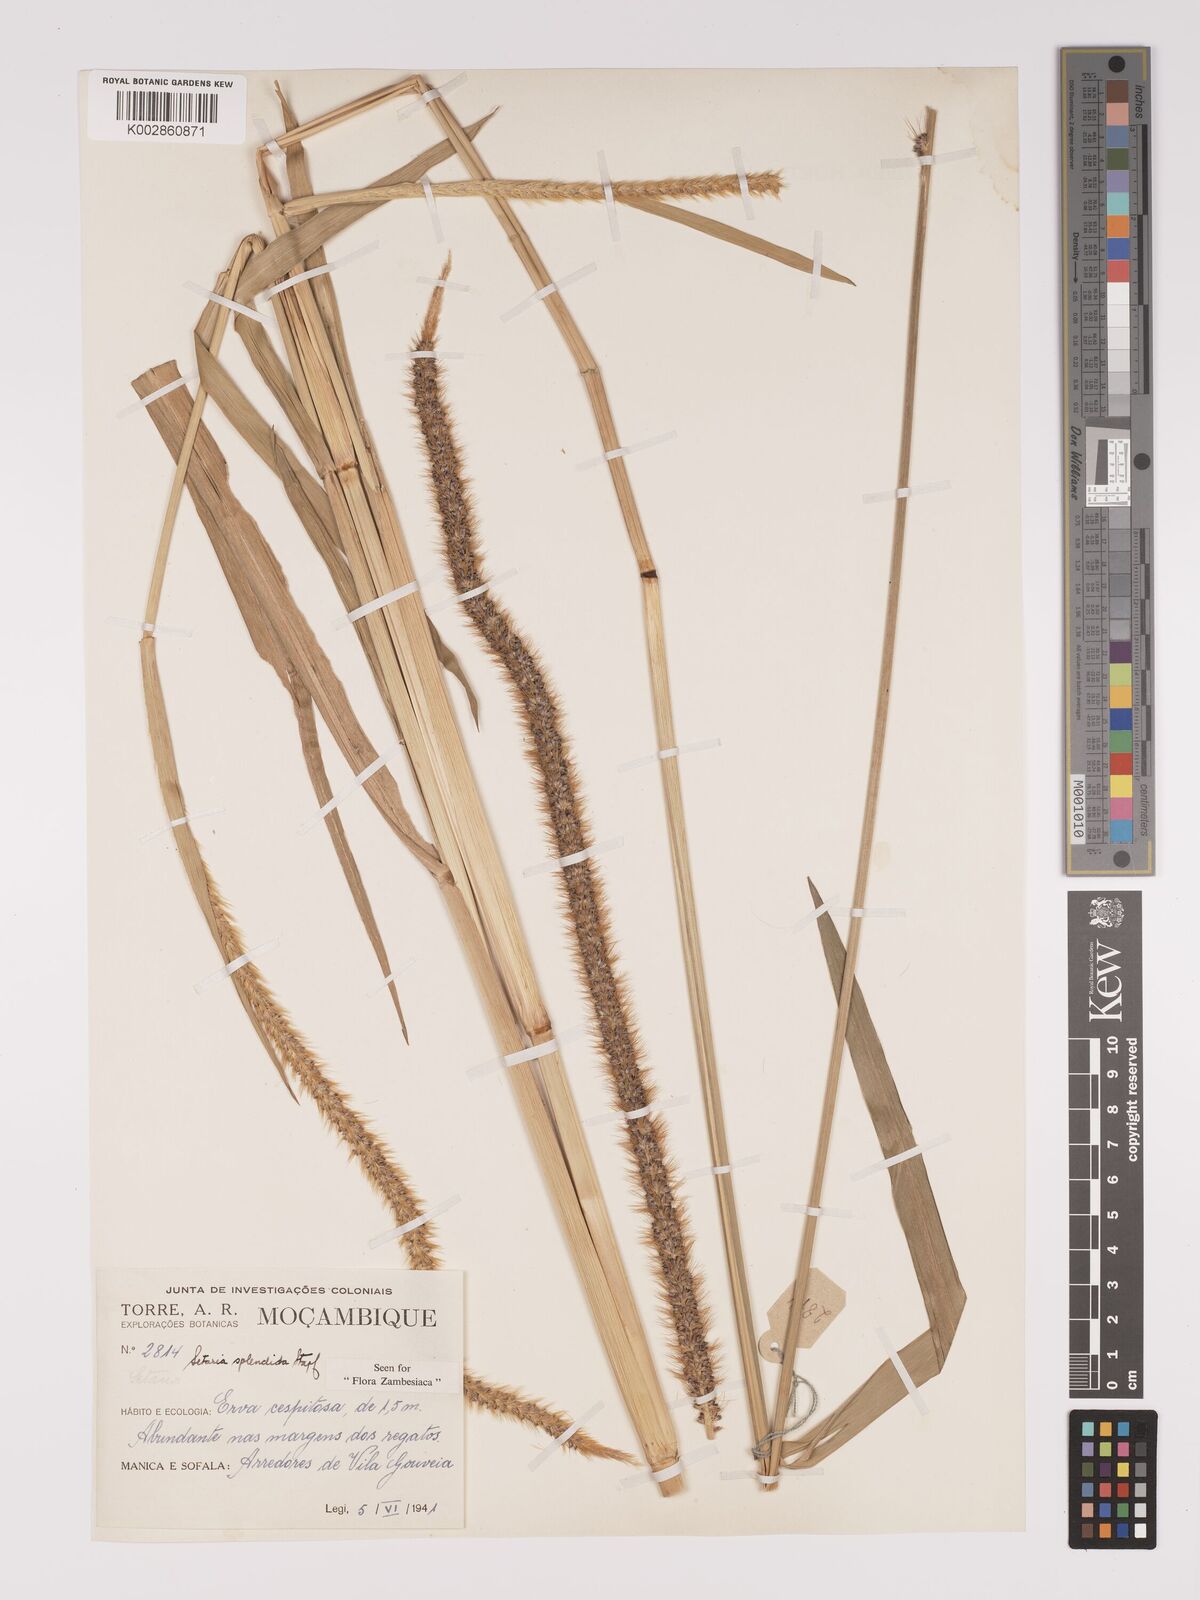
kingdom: Plantae
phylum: Tracheophyta
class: Liliopsida
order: Poales
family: Poaceae
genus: Setaria
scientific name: Setaria sphacelata
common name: African bristlegrass
